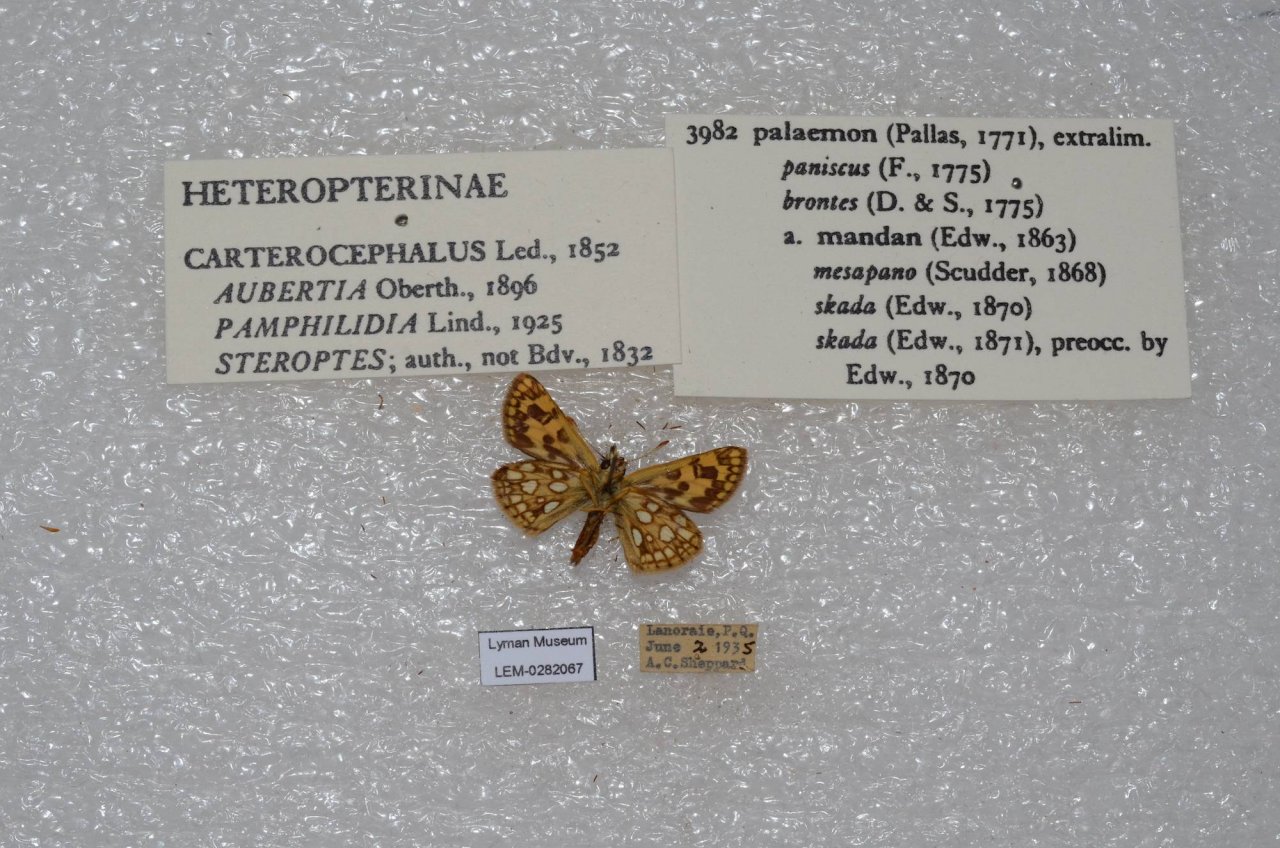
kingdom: Animalia
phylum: Arthropoda
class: Insecta
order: Lepidoptera
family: Hesperiidae
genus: Carterocephalus
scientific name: Carterocephalus palaemon
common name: Chequered Skipper
